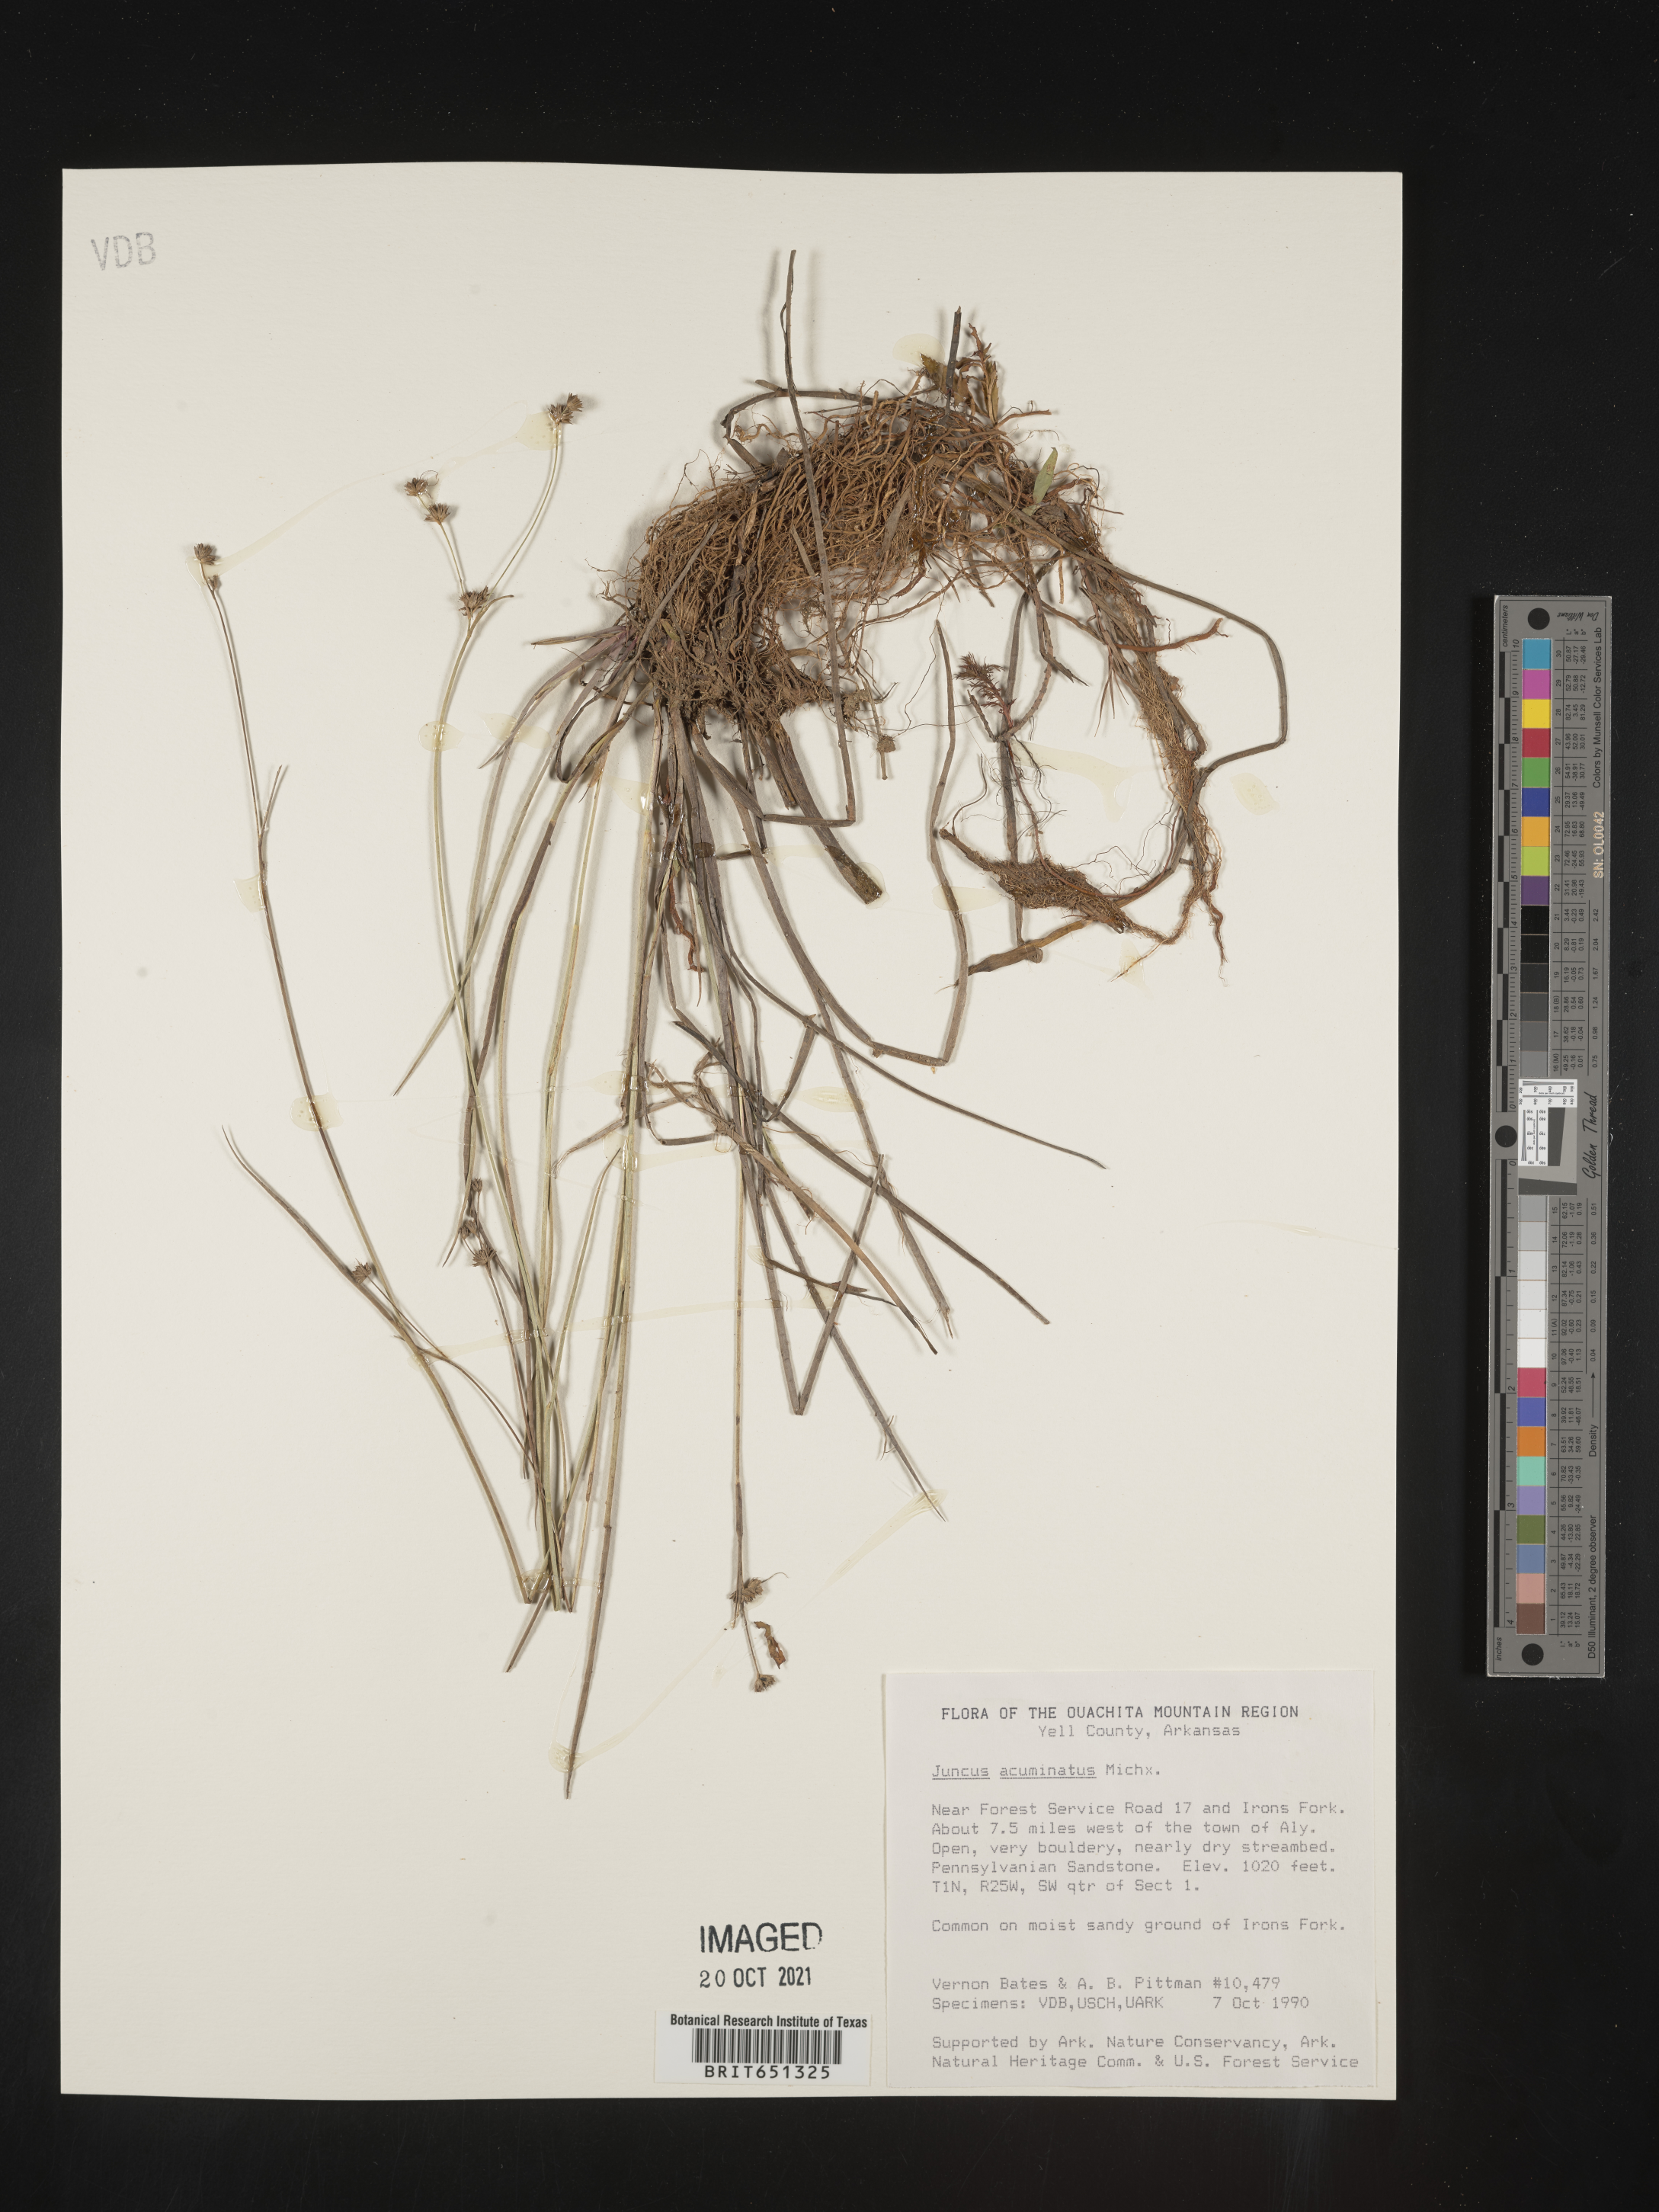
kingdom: Plantae
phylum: Tracheophyta
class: Liliopsida
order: Poales
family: Juncaceae
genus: Juncus
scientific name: Juncus acuminatus
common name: Knotty-leaved rush
